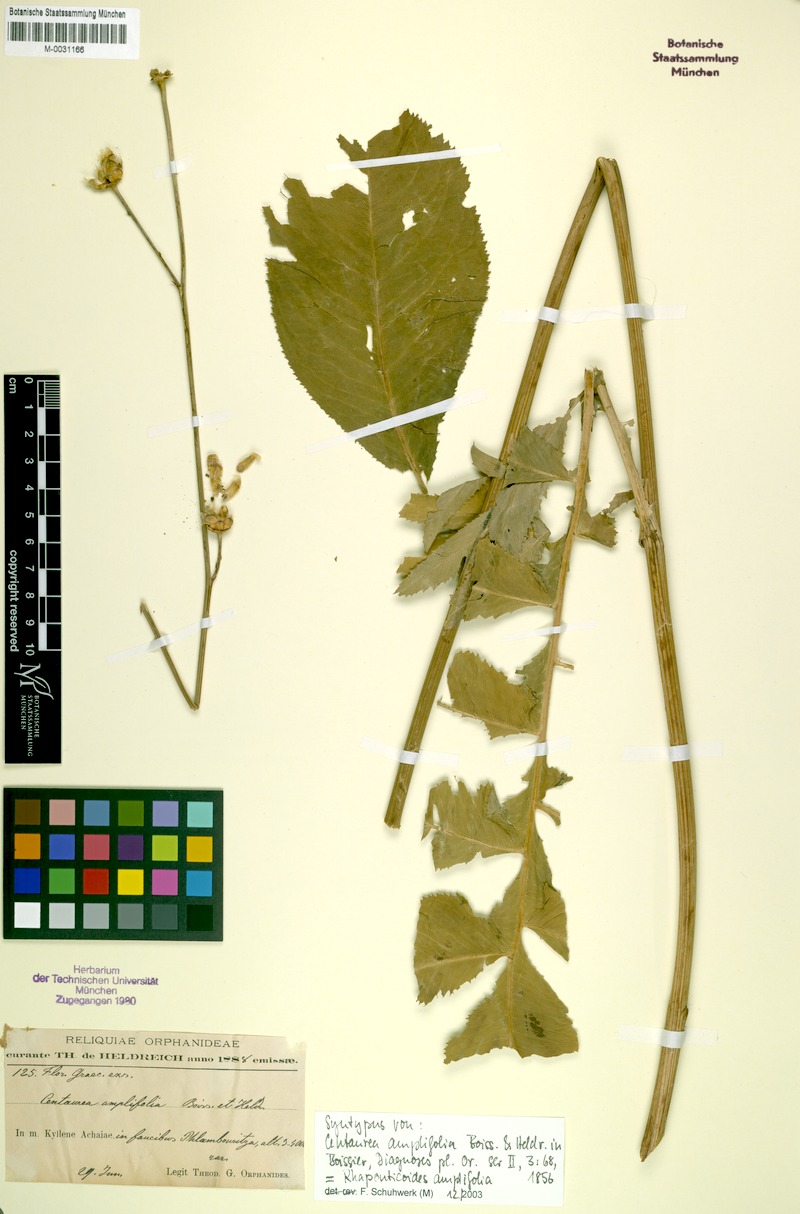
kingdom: Plantae
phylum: Tracheophyta
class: Magnoliopsida
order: Asterales
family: Asteraceae
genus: Rhaponticoides
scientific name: Rhaponticoides amplifolia
